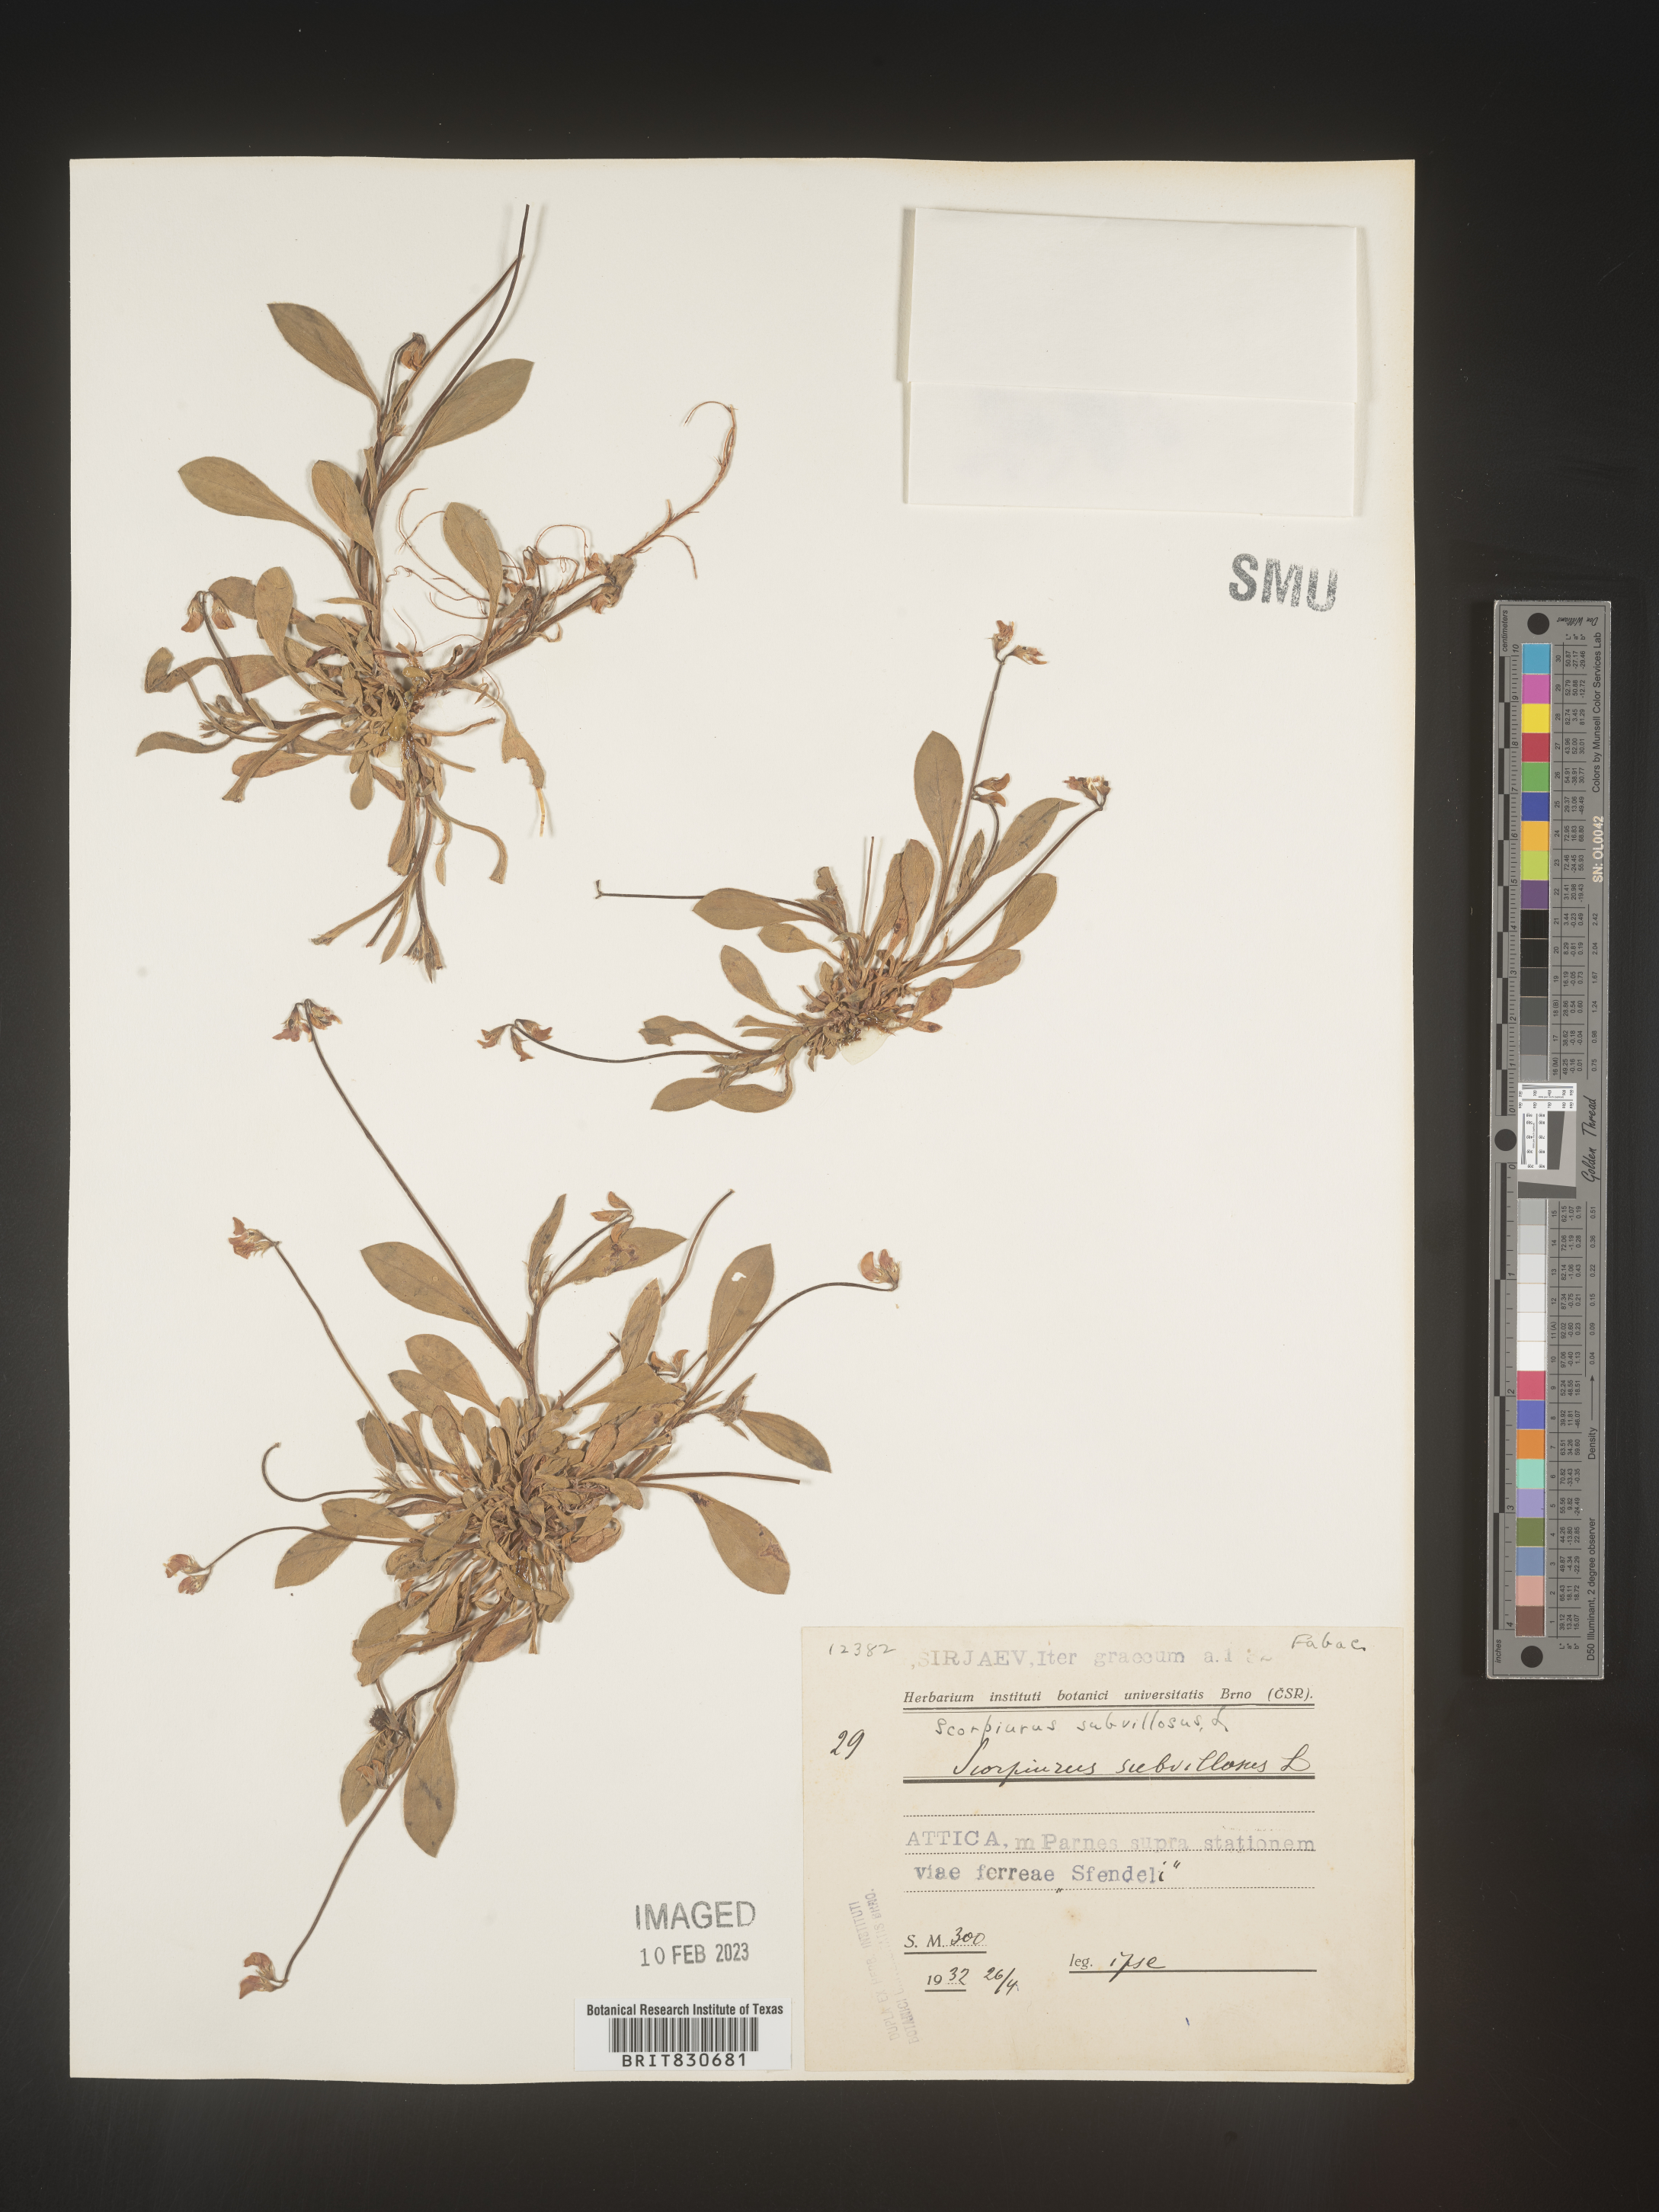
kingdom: Plantae
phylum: Tracheophyta
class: Magnoliopsida
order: Fabales
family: Fabaceae
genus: Scorpiurus
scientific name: Scorpiurus
